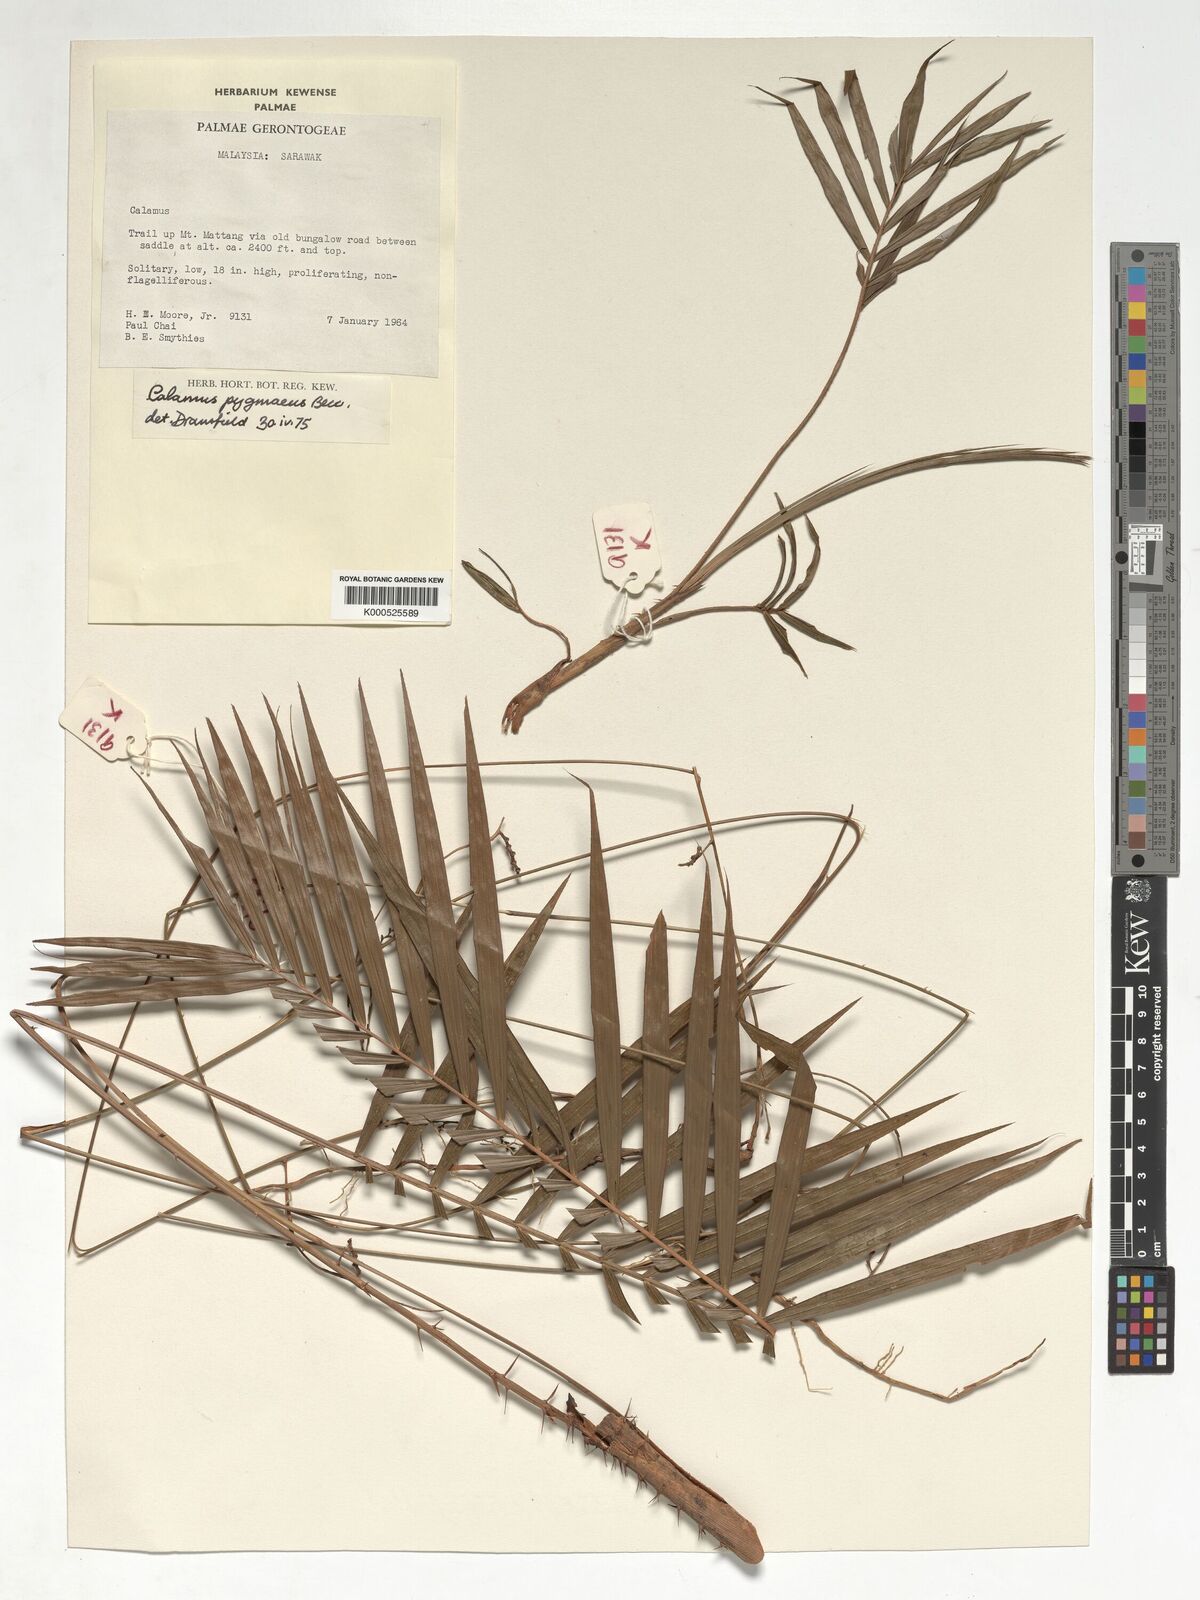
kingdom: Plantae
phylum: Tracheophyta
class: Liliopsida
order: Arecales
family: Arecaceae
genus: Calamus
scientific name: Calamus pygmaeus
